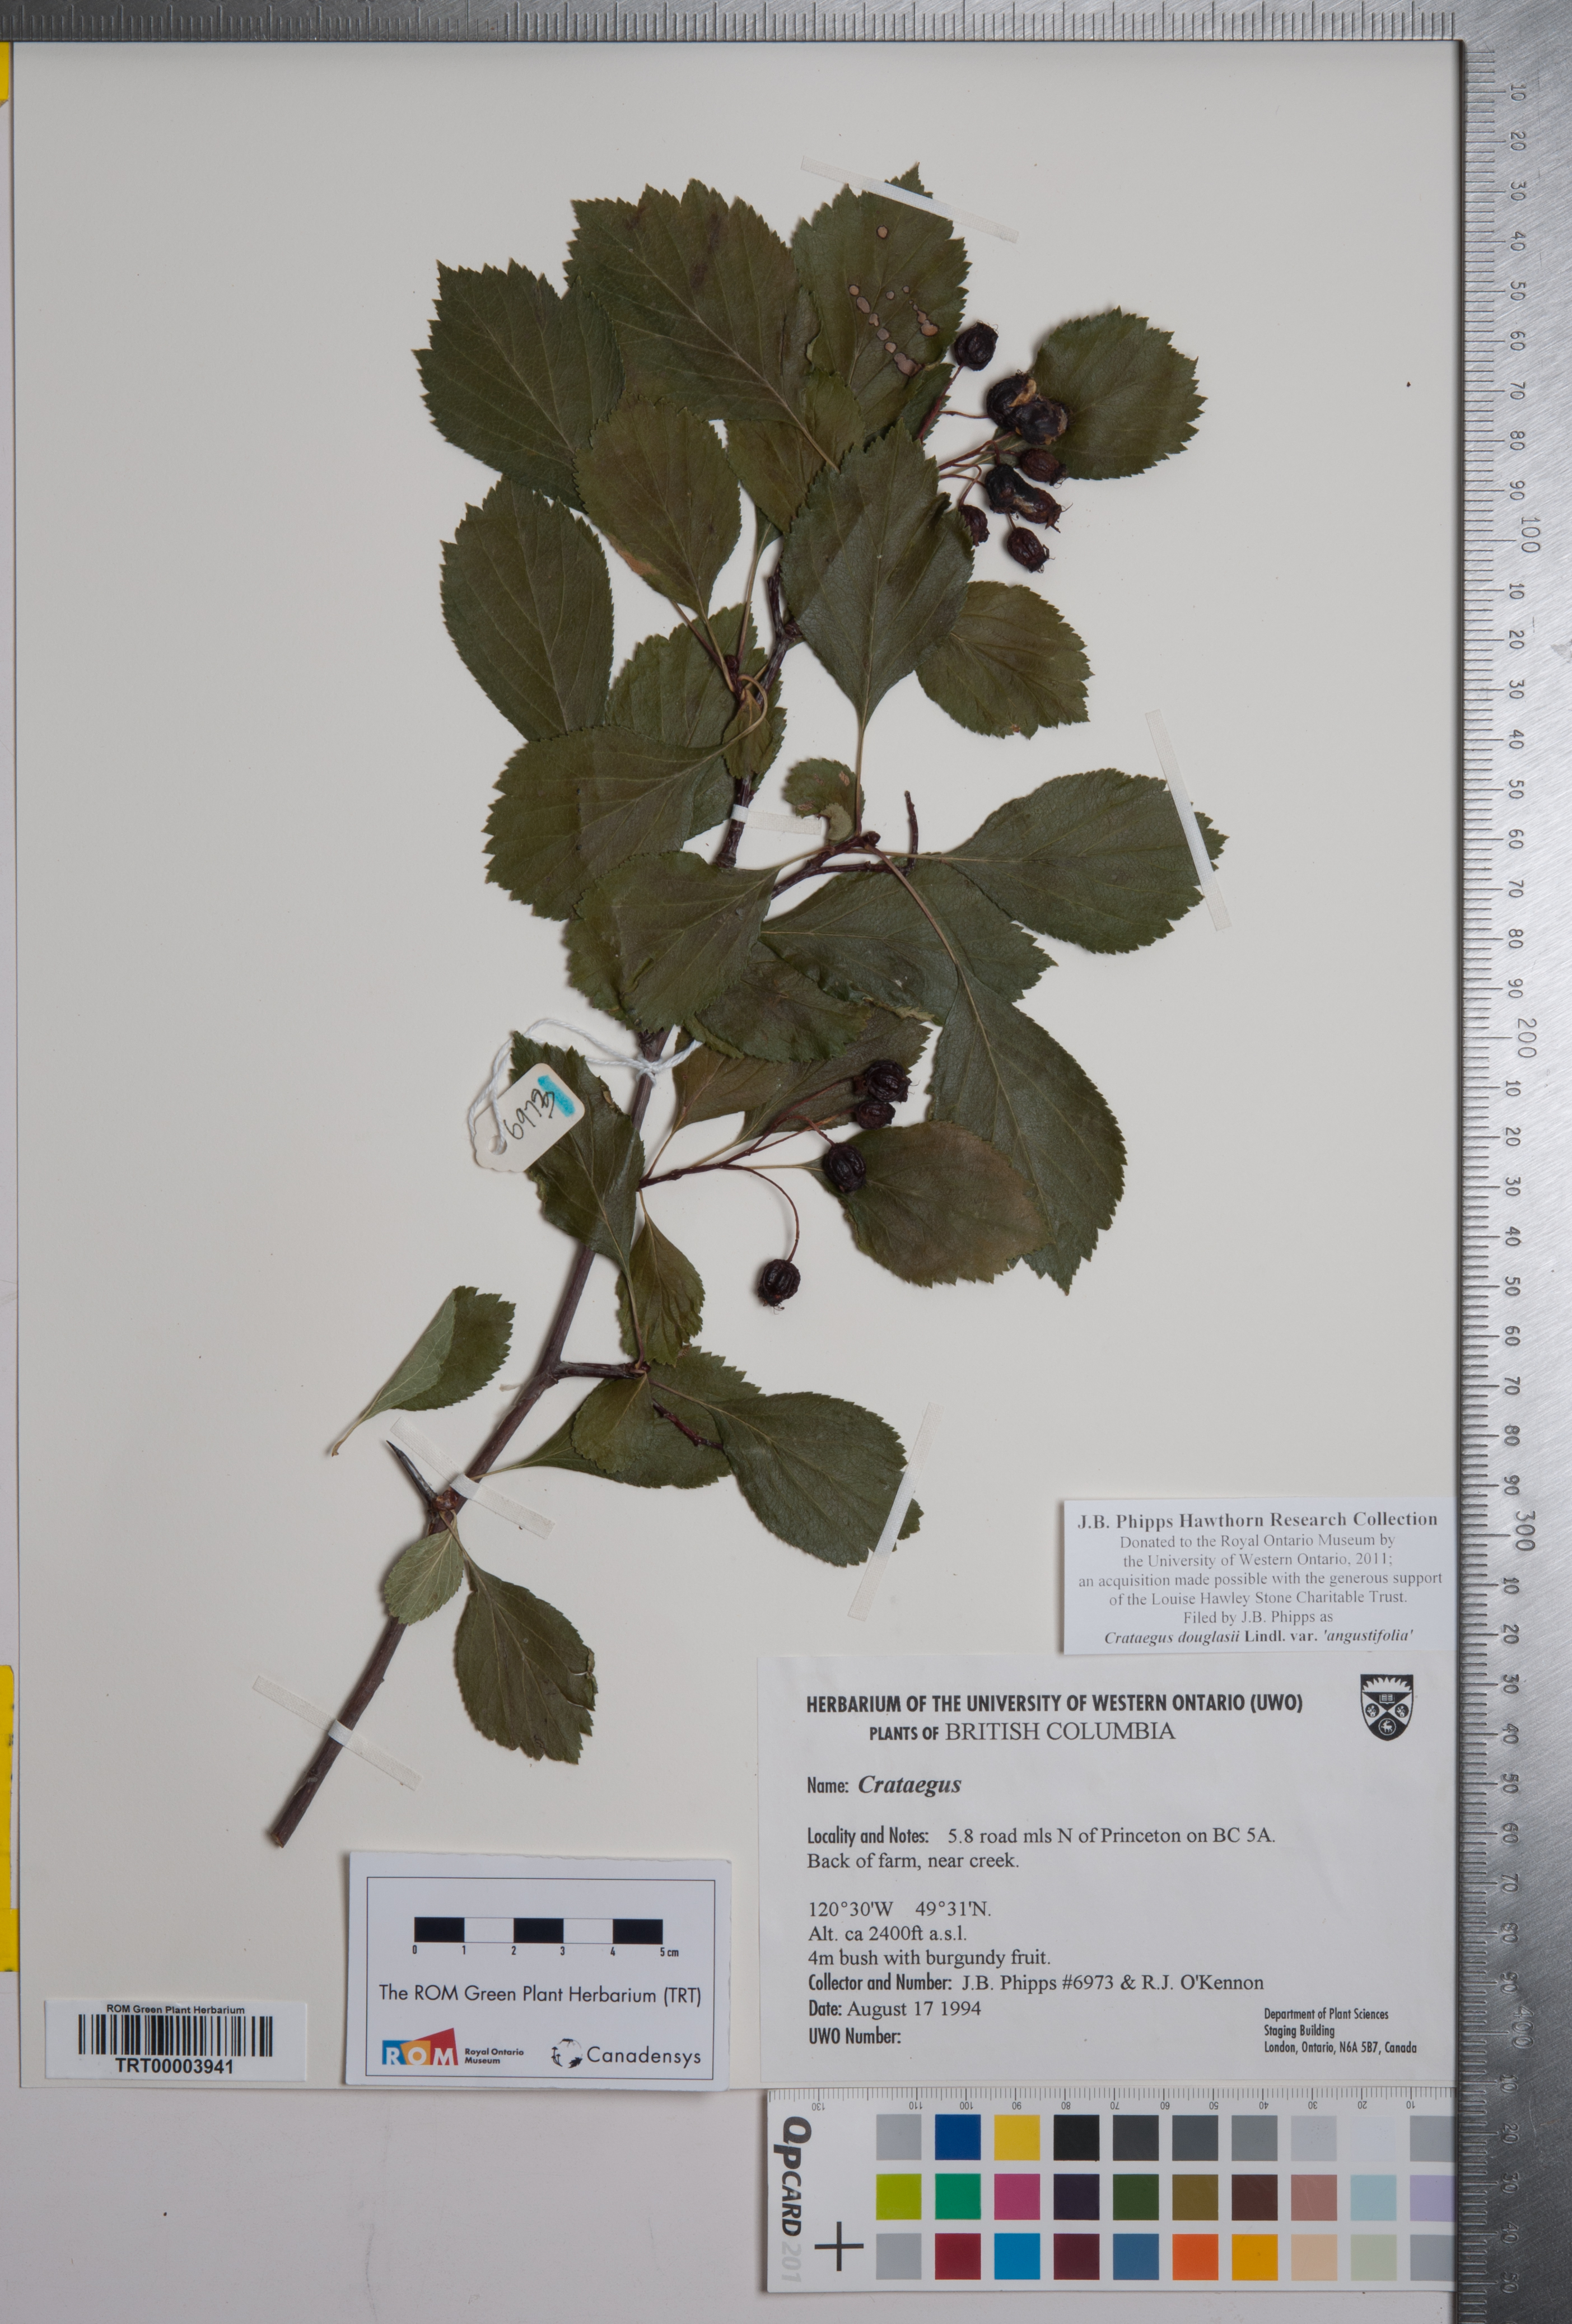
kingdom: Plantae
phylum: Tracheophyta
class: Magnoliopsida
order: Rosales
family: Rosaceae
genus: Crataegus
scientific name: Crataegus douglasii
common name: Black hawthorn
